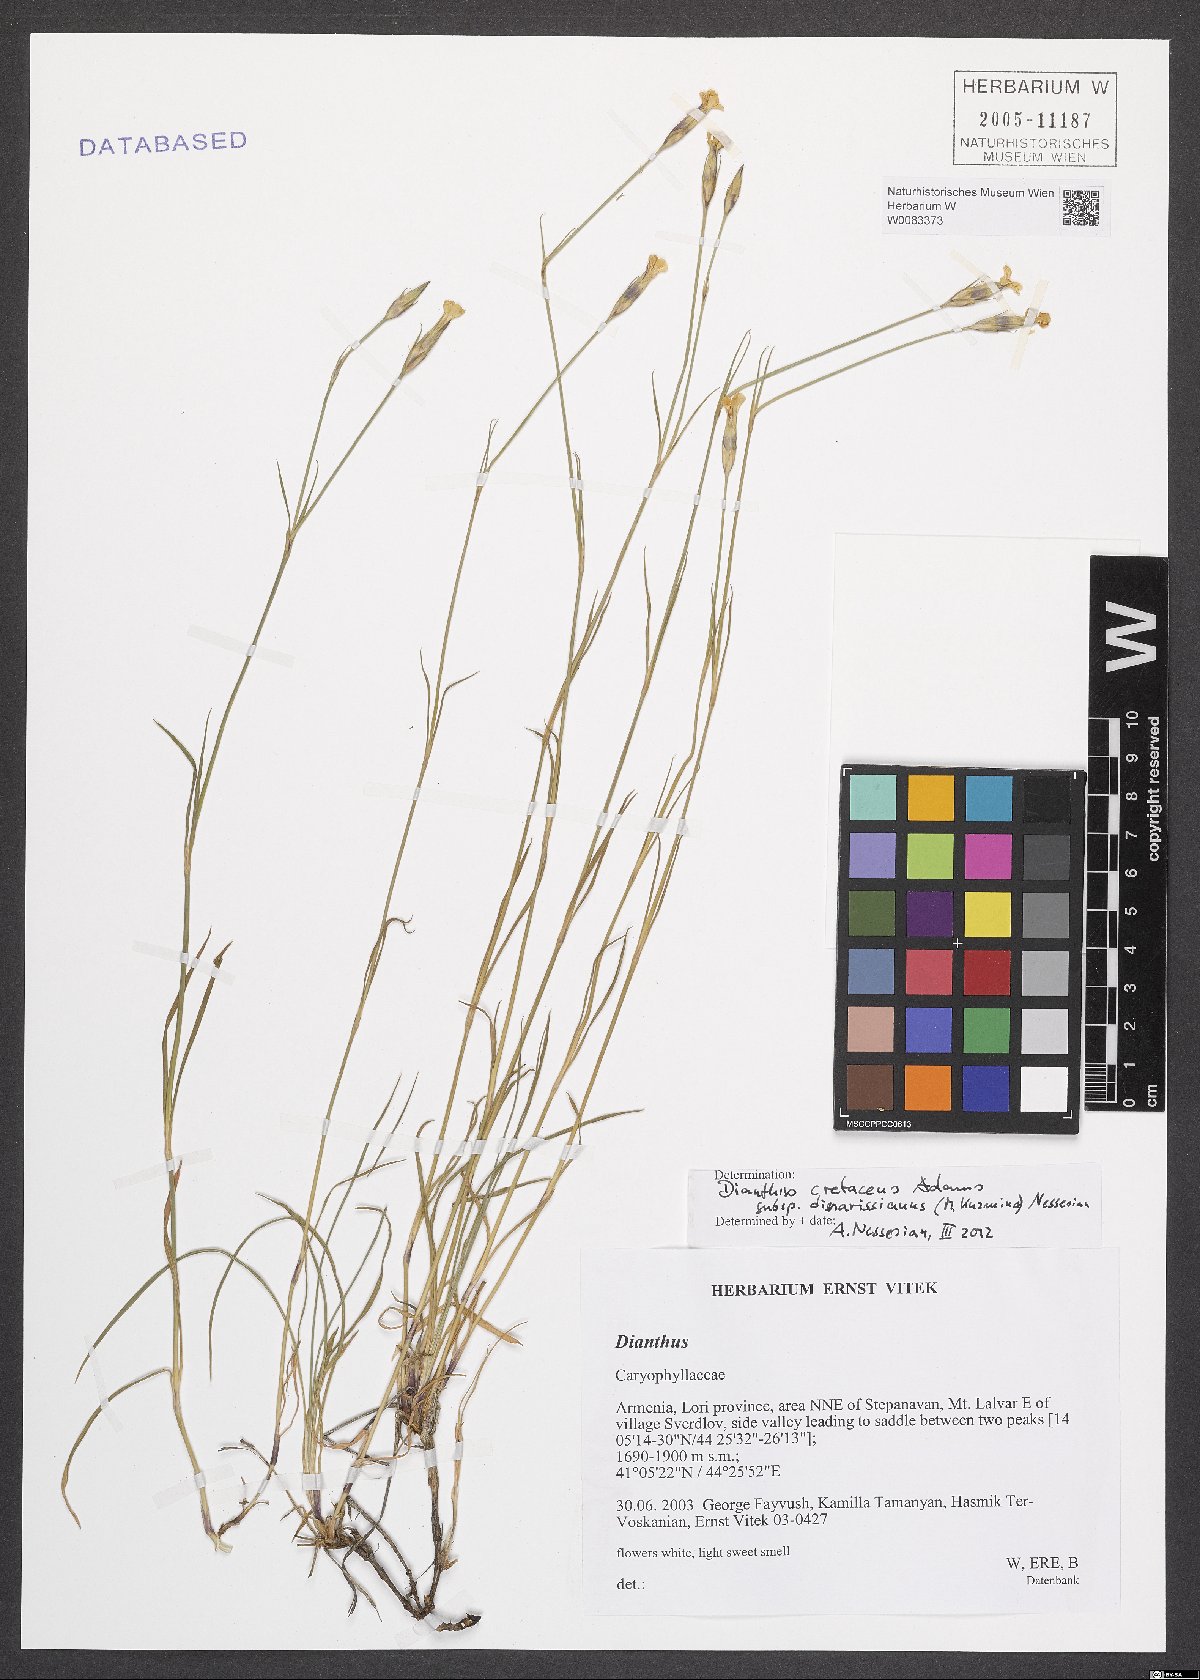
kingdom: Plantae
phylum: Tracheophyta
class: Magnoliopsida
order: Caryophyllales
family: Caryophyllaceae
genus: Dianthus
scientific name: Dianthus cretaceus
